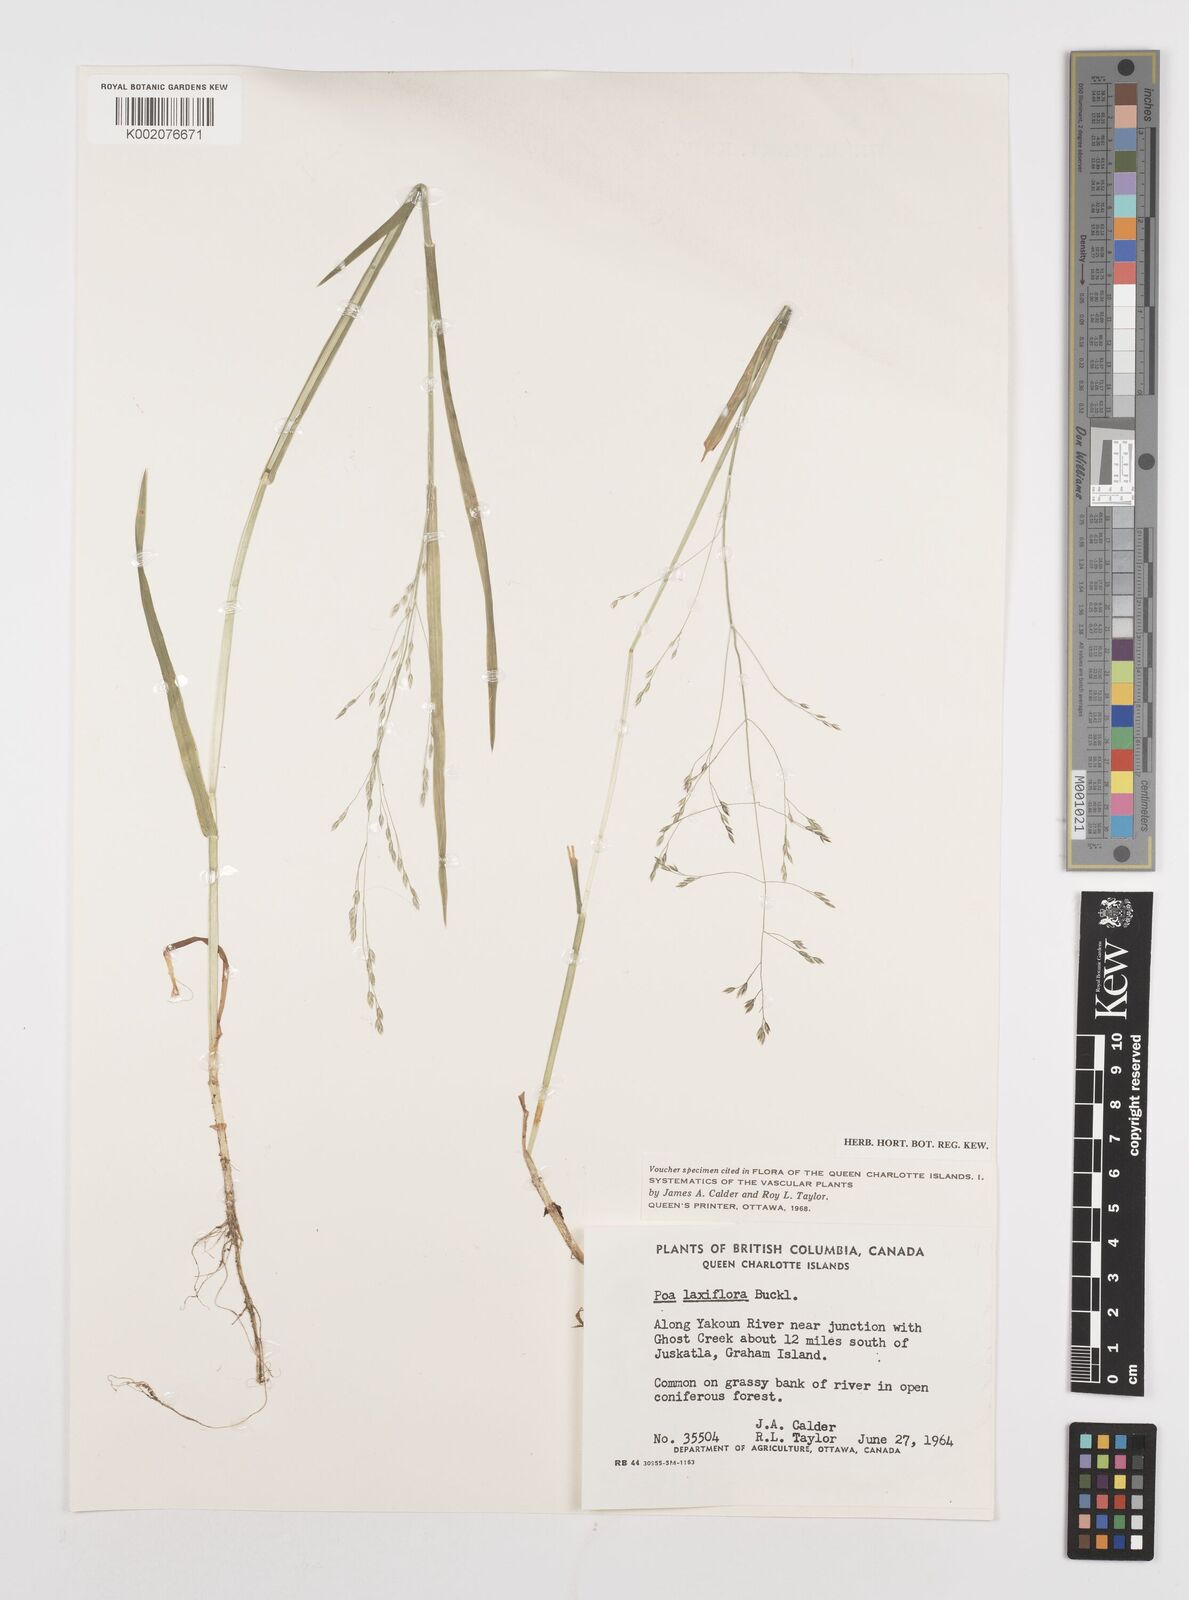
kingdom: Plantae
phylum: Tracheophyta
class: Liliopsida
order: Poales
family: Poaceae
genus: Poa
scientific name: Poa laxiflora
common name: Lax-flowered bluegrass
